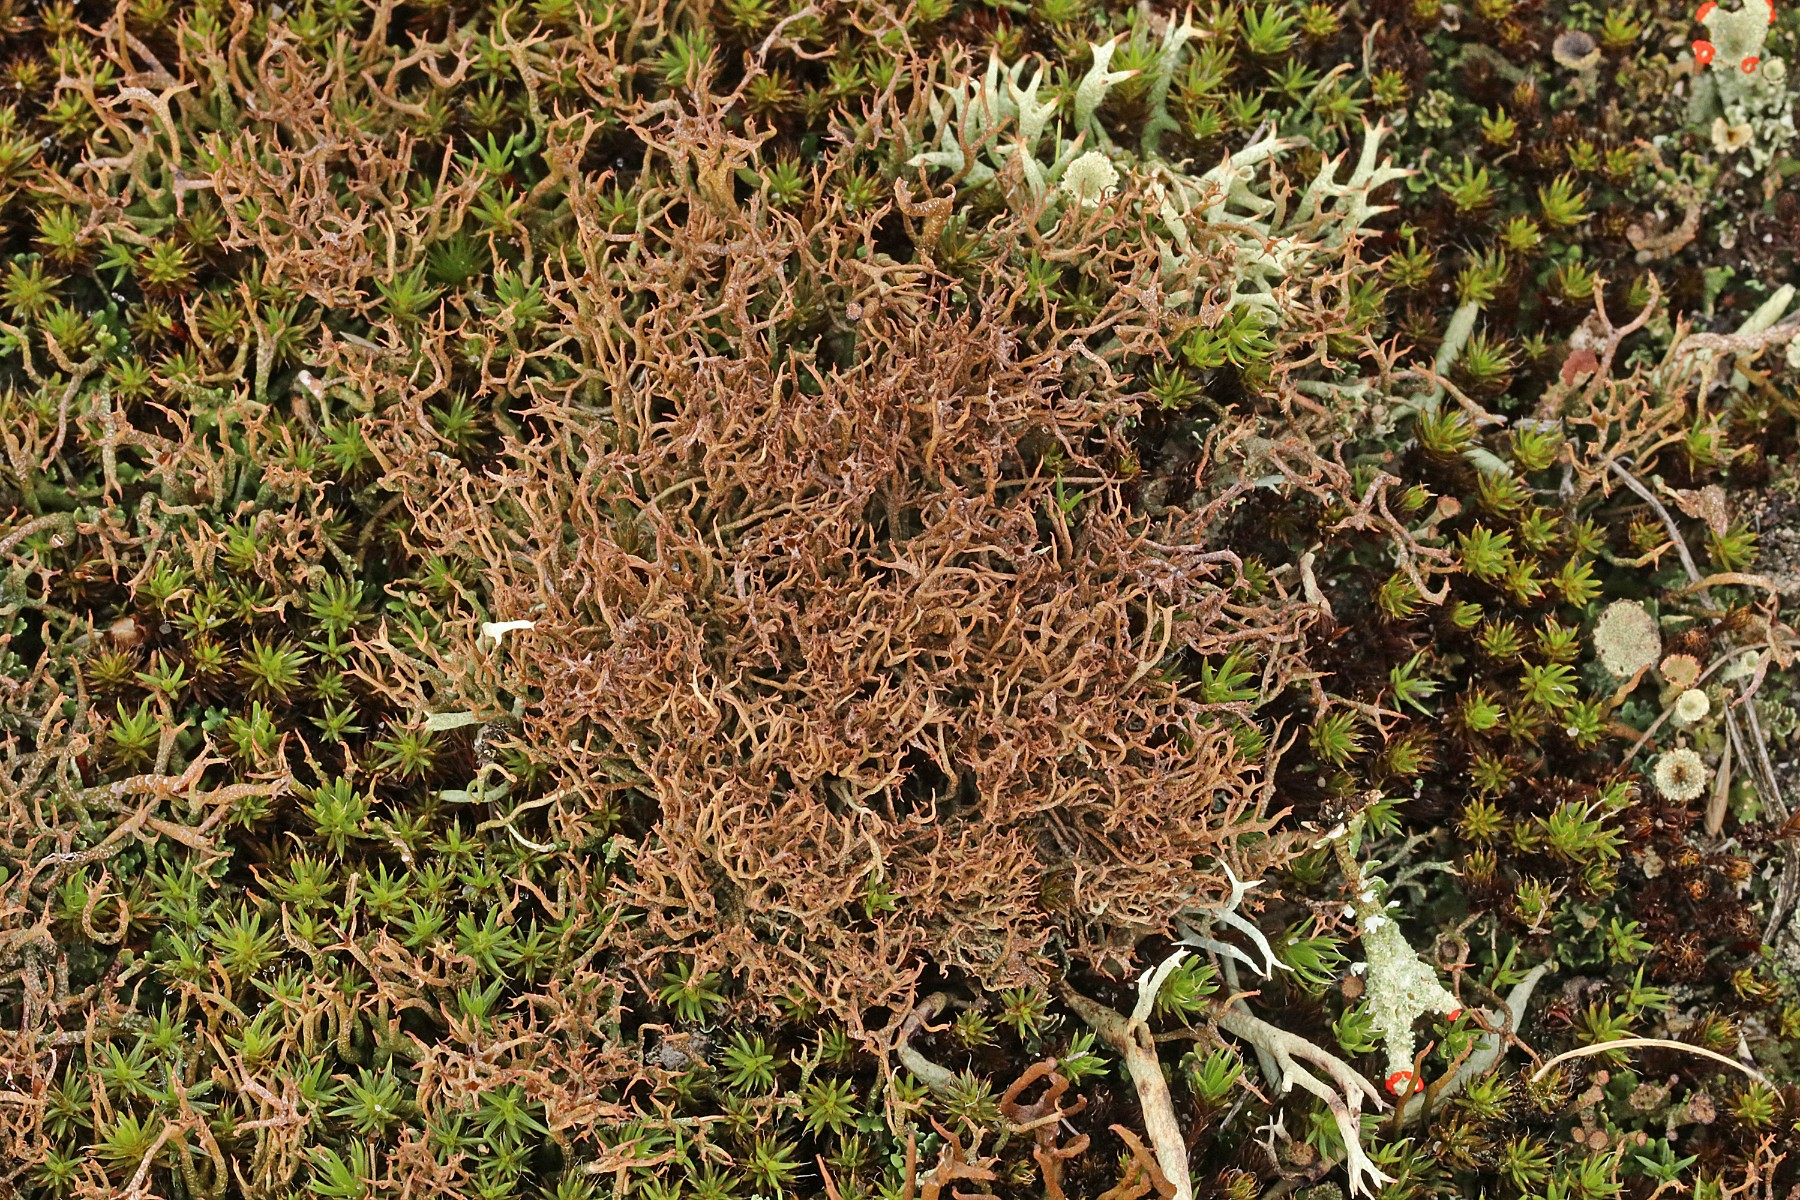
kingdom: Fungi
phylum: Ascomycota
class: Lecanoromycetes
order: Lecanorales
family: Cladoniaceae
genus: Cladonia
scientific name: Cladonia crispata
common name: takket bægerlav
